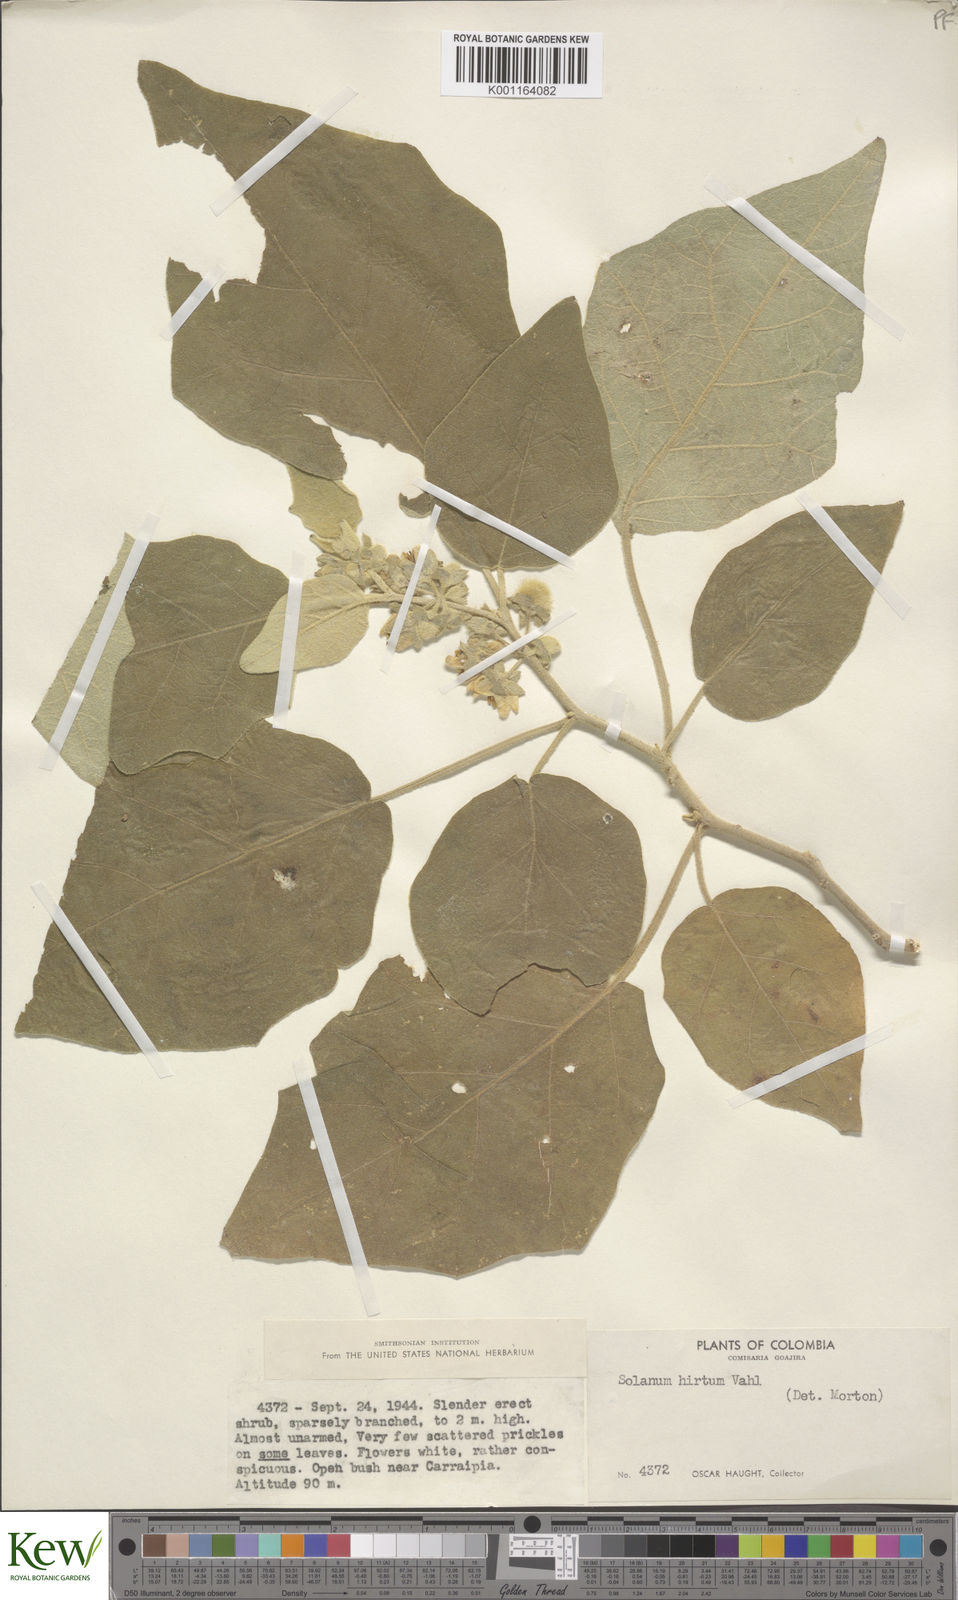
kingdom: Plantae
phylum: Tracheophyta
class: Magnoliopsida
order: Solanales
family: Solanaceae
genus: Solanum
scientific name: Solanum hirtum
